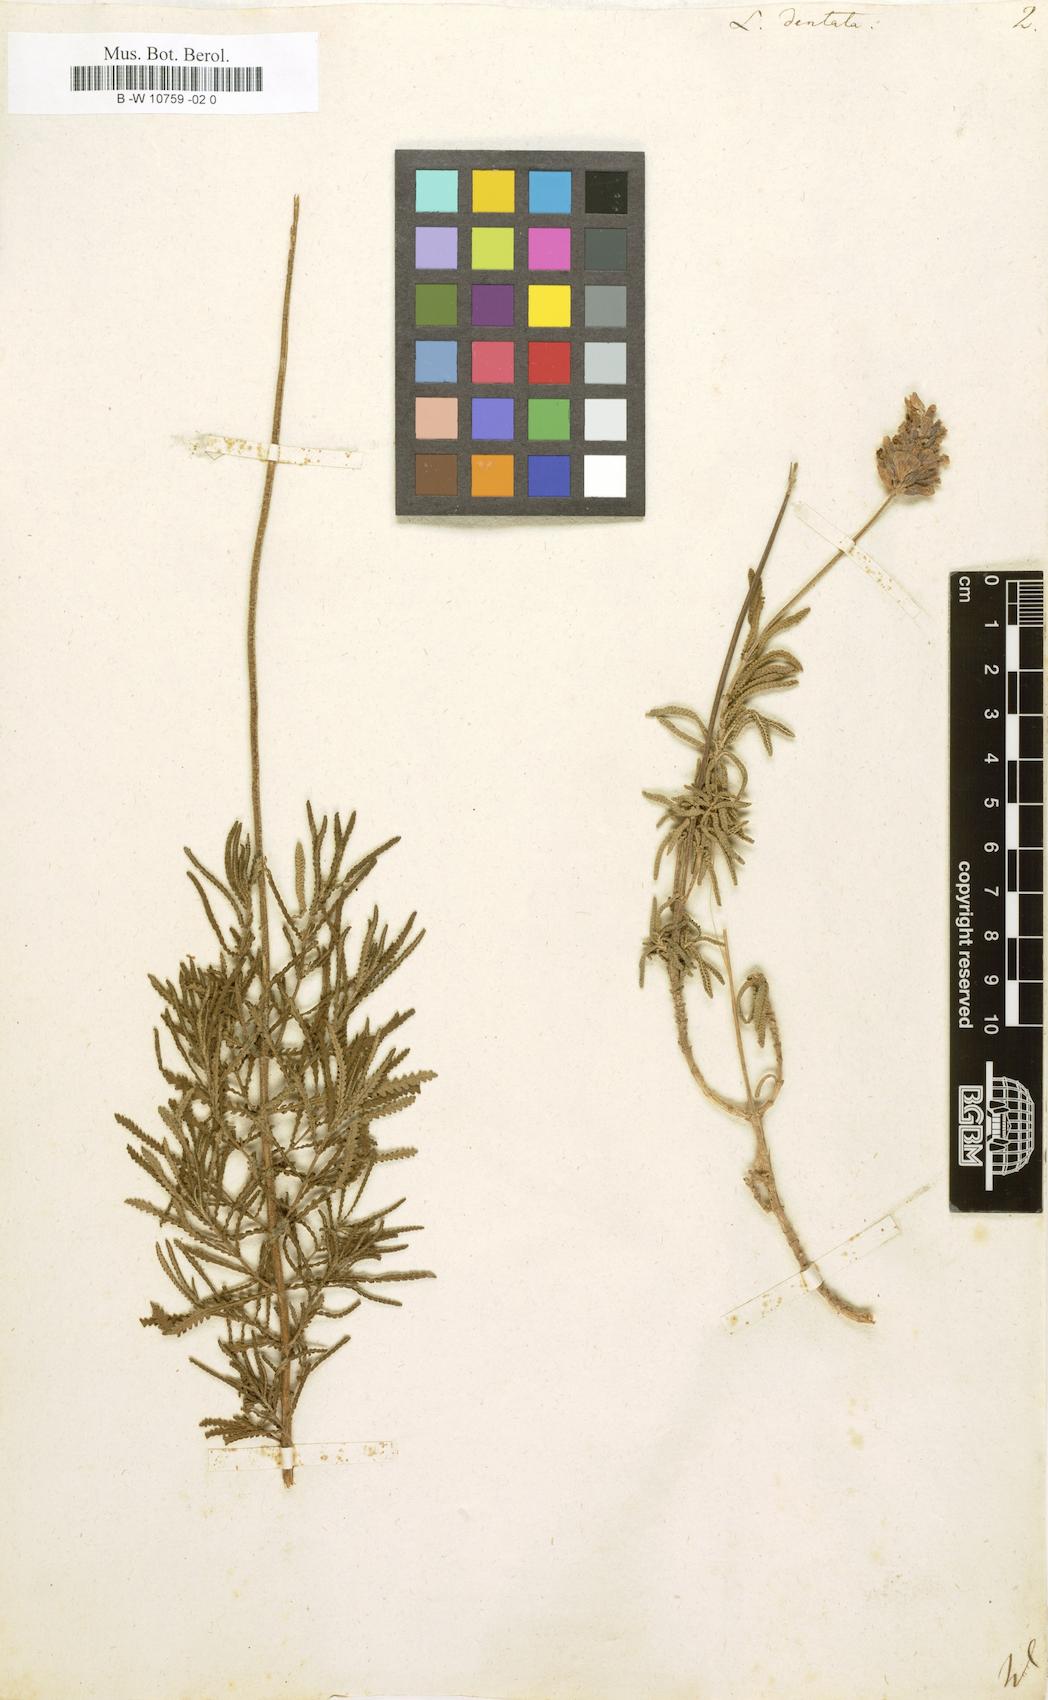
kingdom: Plantae
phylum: Tracheophyta
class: Magnoliopsida
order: Lamiales
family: Lamiaceae
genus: Lavandula
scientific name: Lavandula dentata
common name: French lavender
